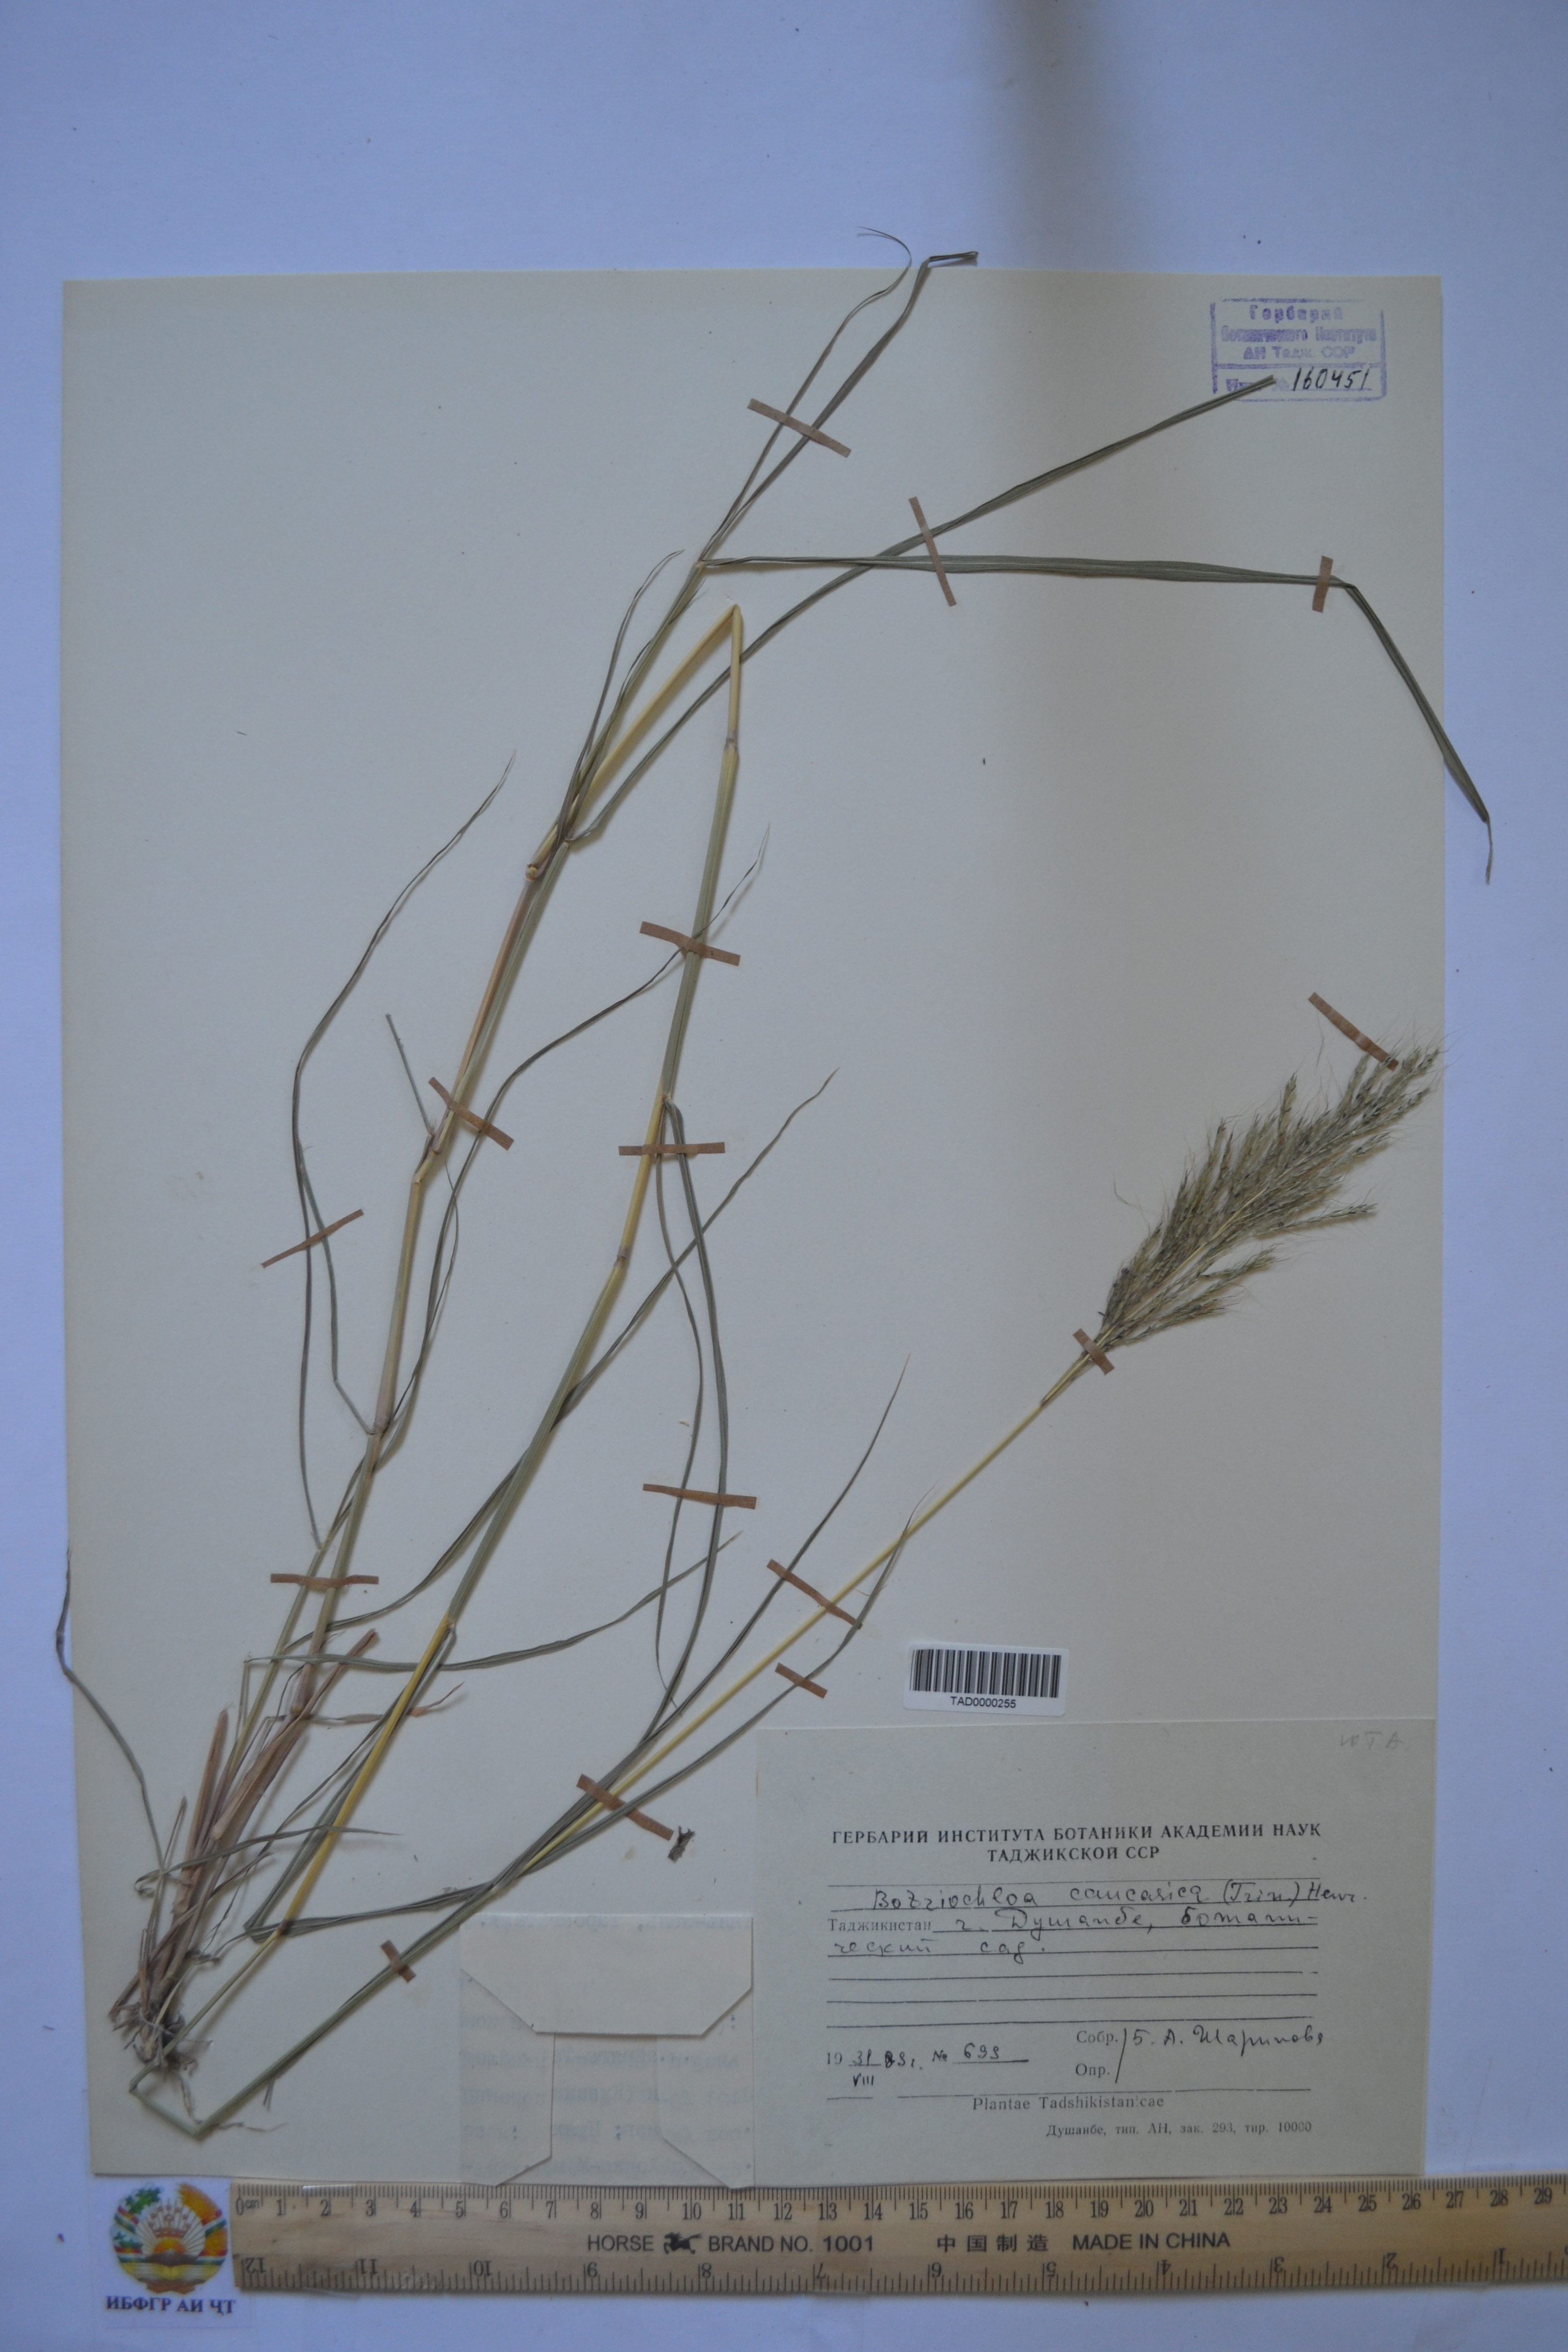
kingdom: Plantae
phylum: Tracheophyta
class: Liliopsida
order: Poales
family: Poaceae
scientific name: Poaceae
